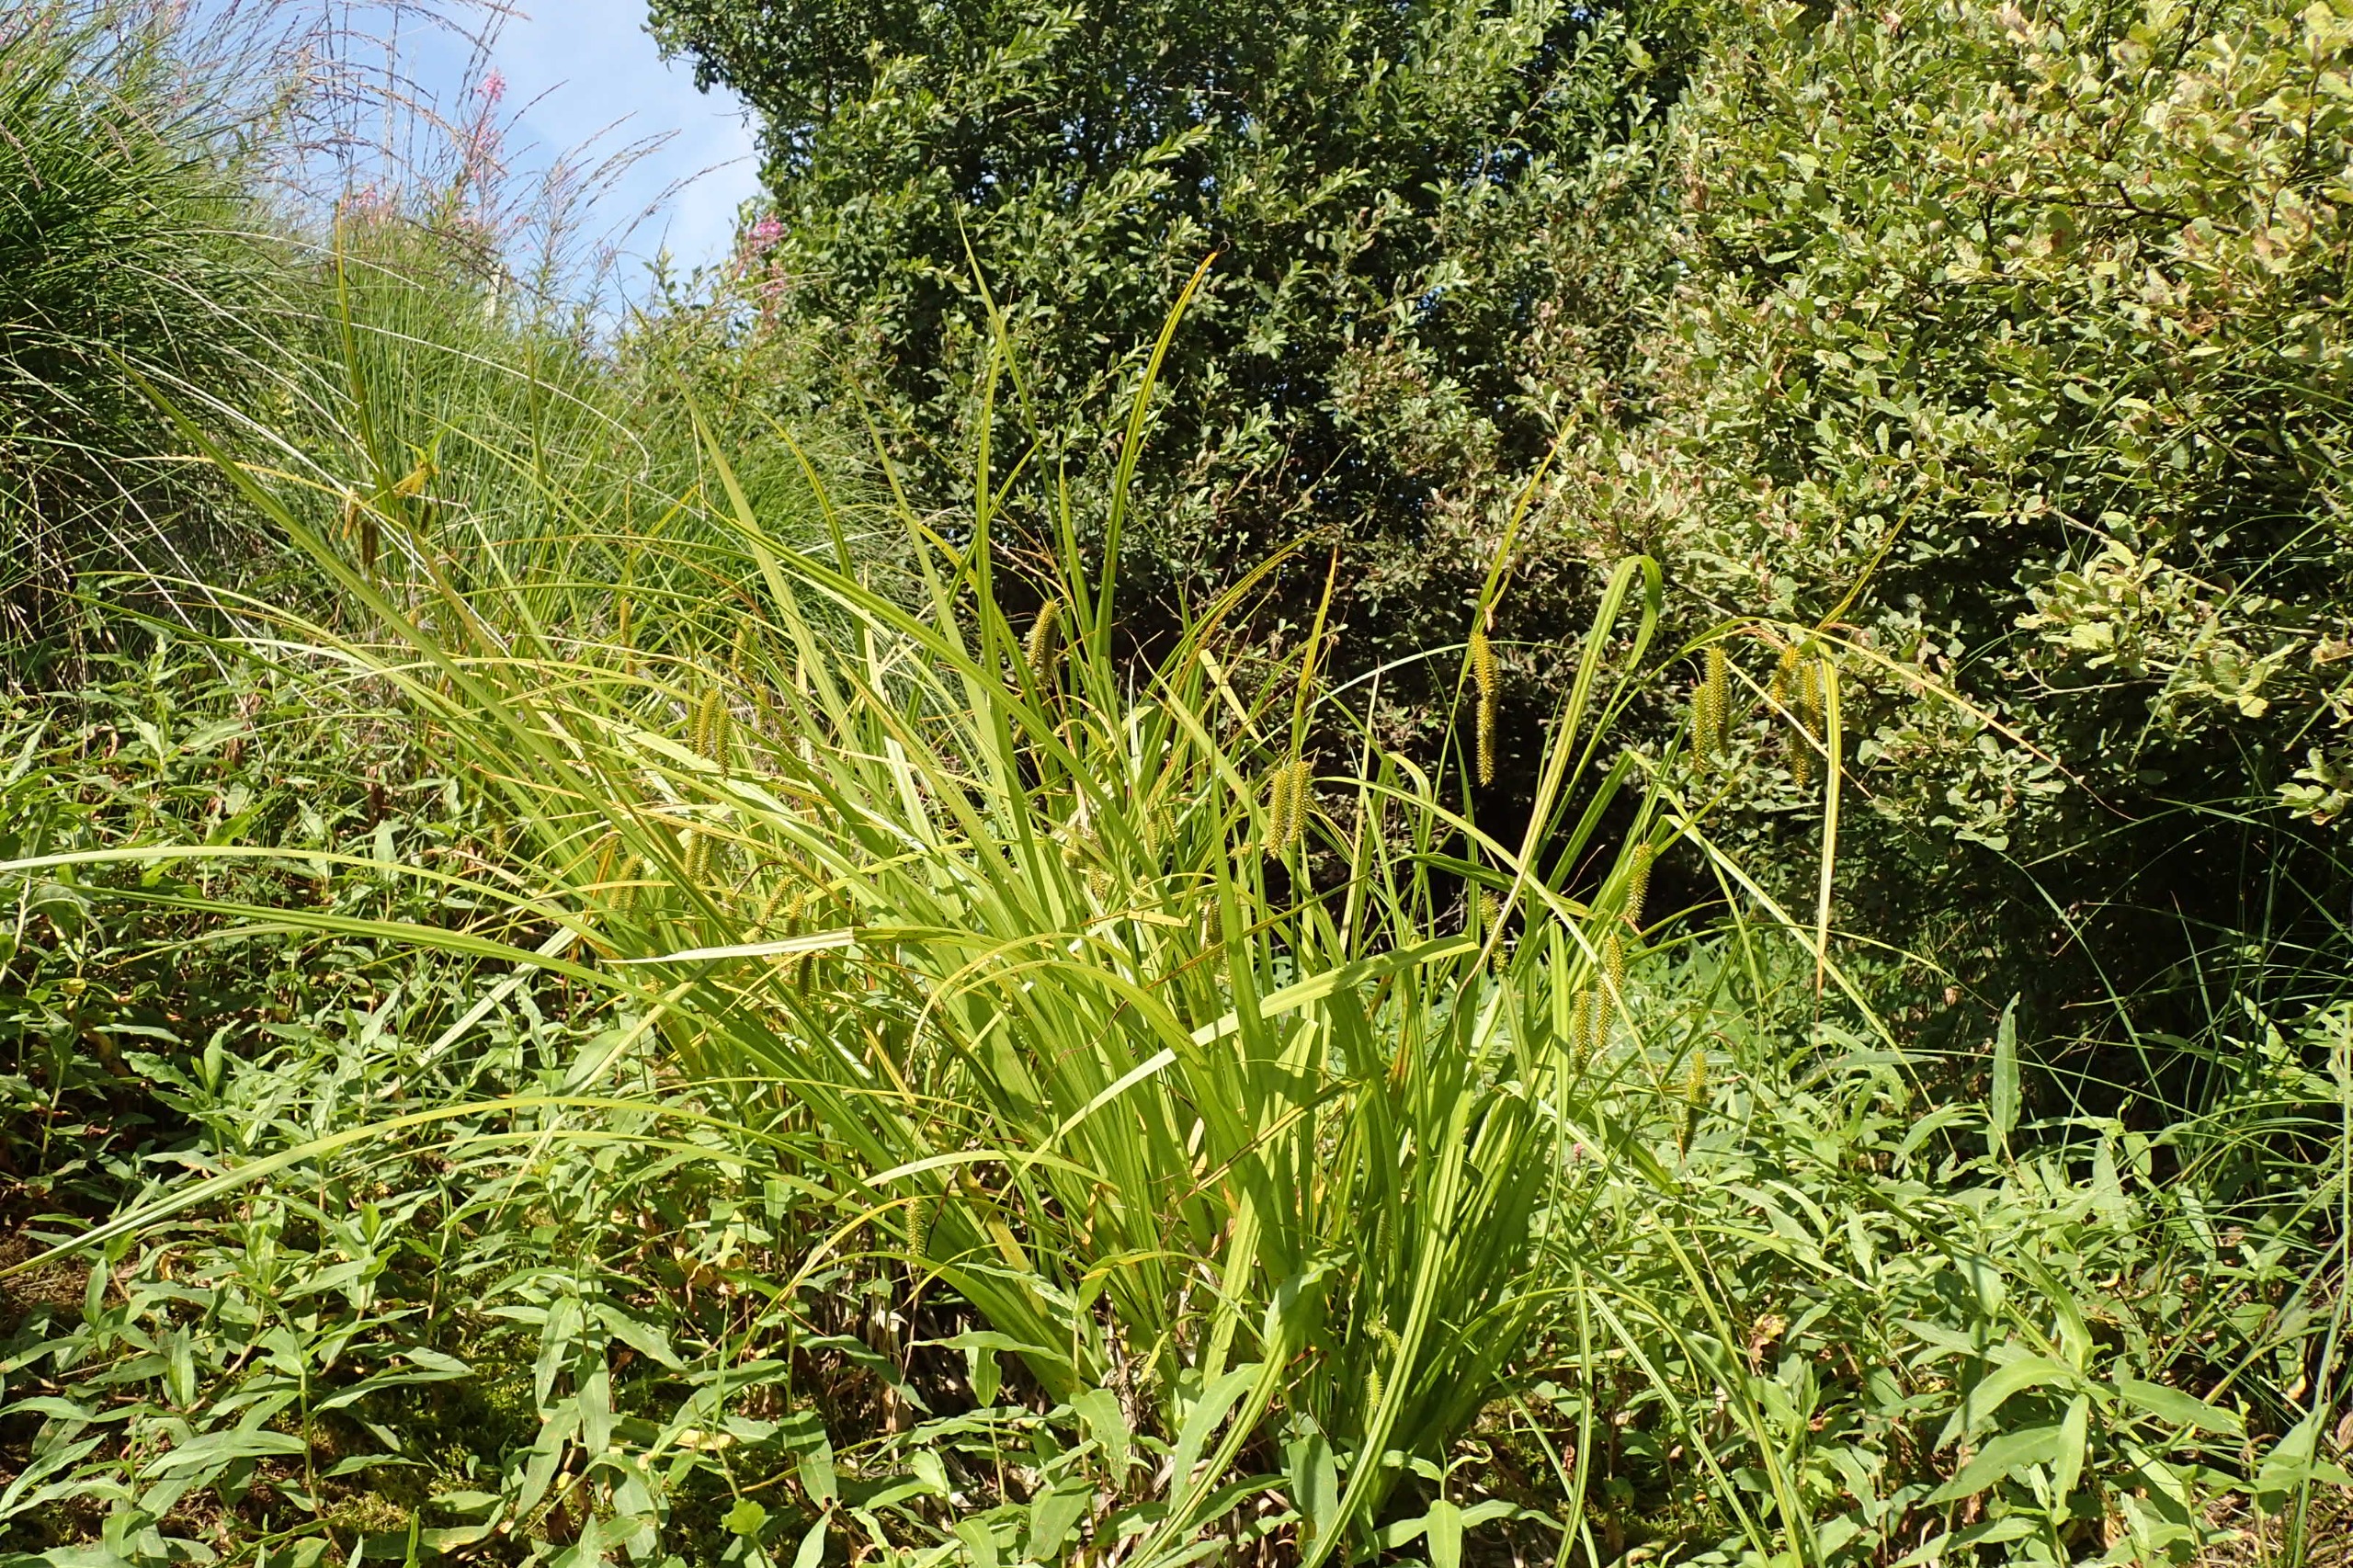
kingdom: Plantae
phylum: Tracheophyta
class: Liliopsida
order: Poales
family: Cyperaceae
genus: Carex
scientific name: Carex pseudocyperus
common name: Knippe-star
